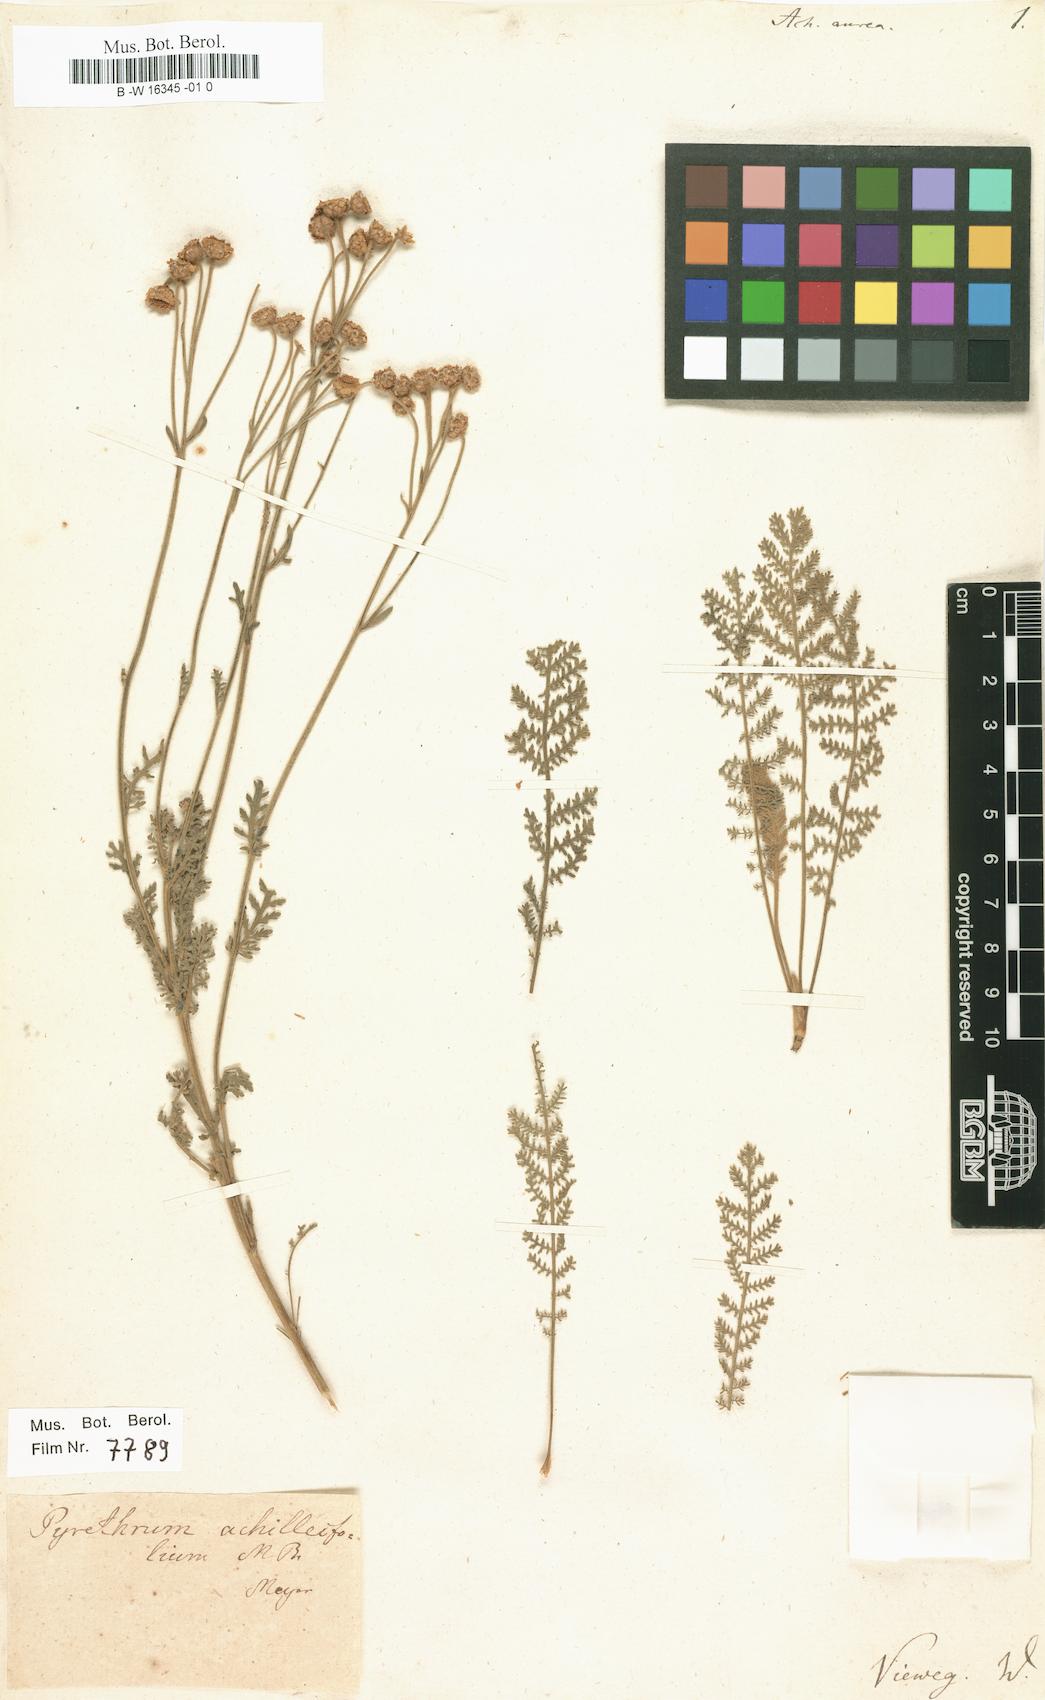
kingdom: Plantae
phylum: Tracheophyta
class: Magnoliopsida
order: Asterales
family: Asteraceae
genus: Tanacetum
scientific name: Tanacetum aureum
